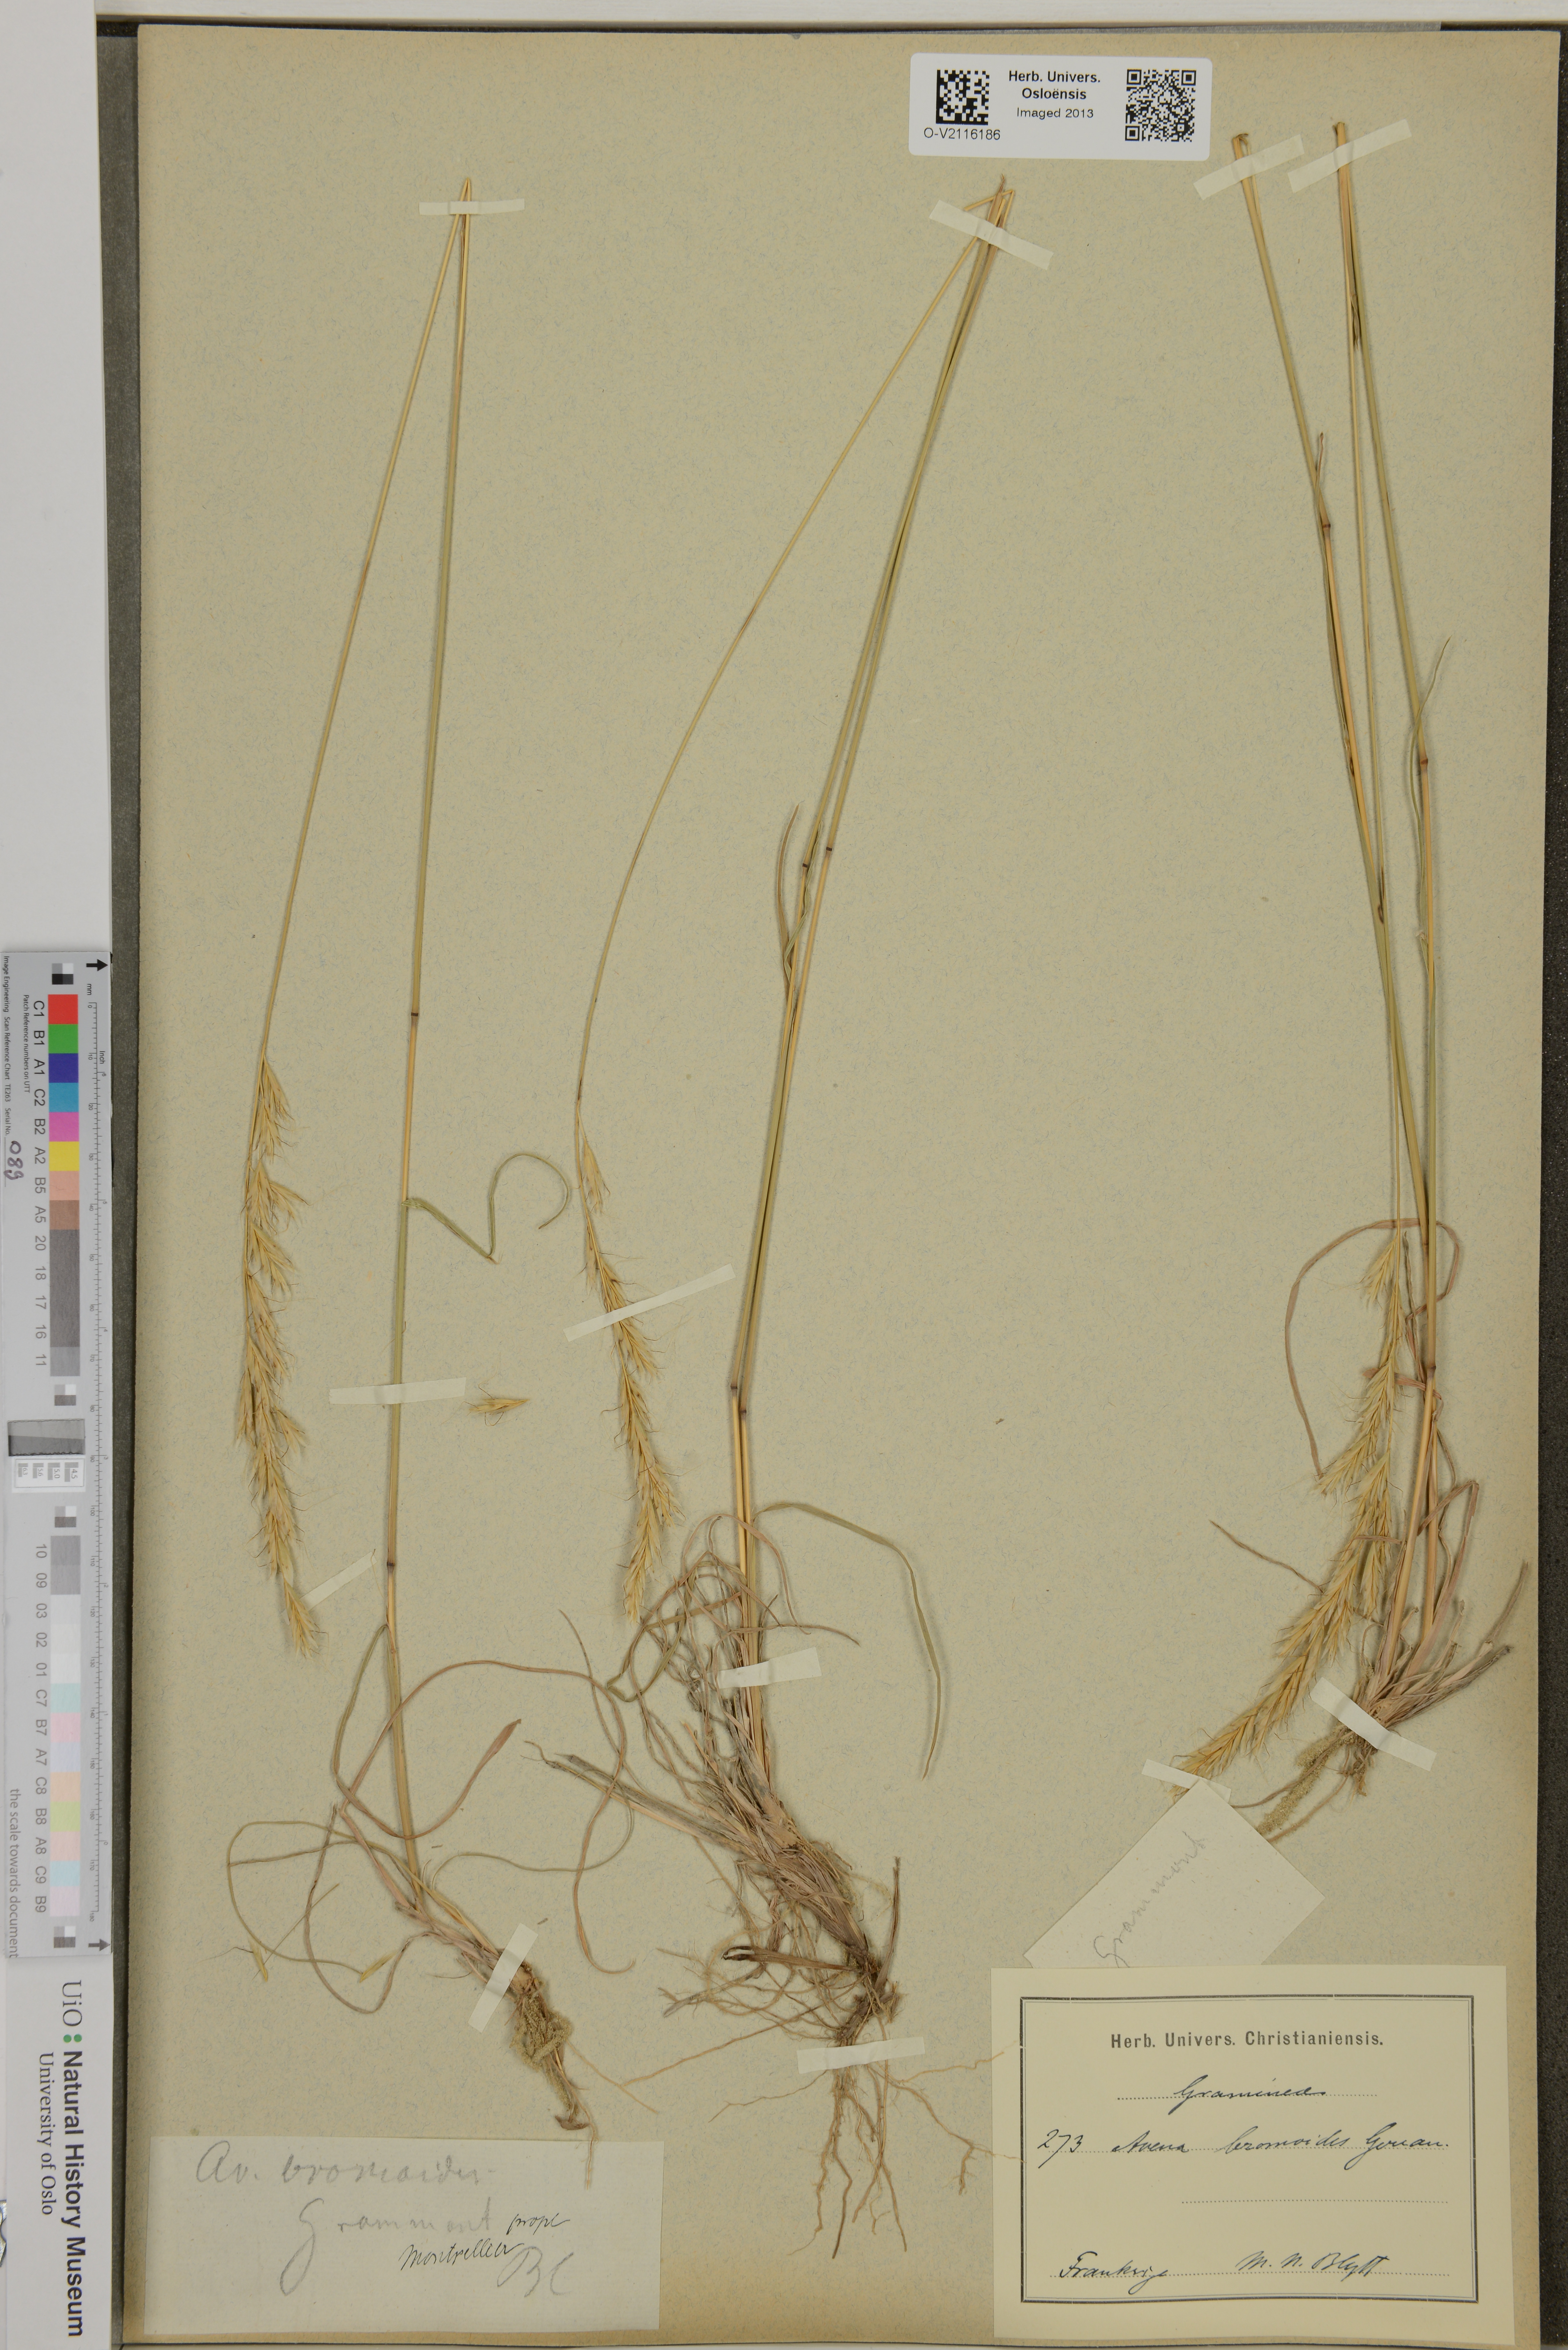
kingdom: Plantae
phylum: Tracheophyta
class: Liliopsida
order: Poales
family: Poaceae
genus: Helictochloa
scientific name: Helictochloa
